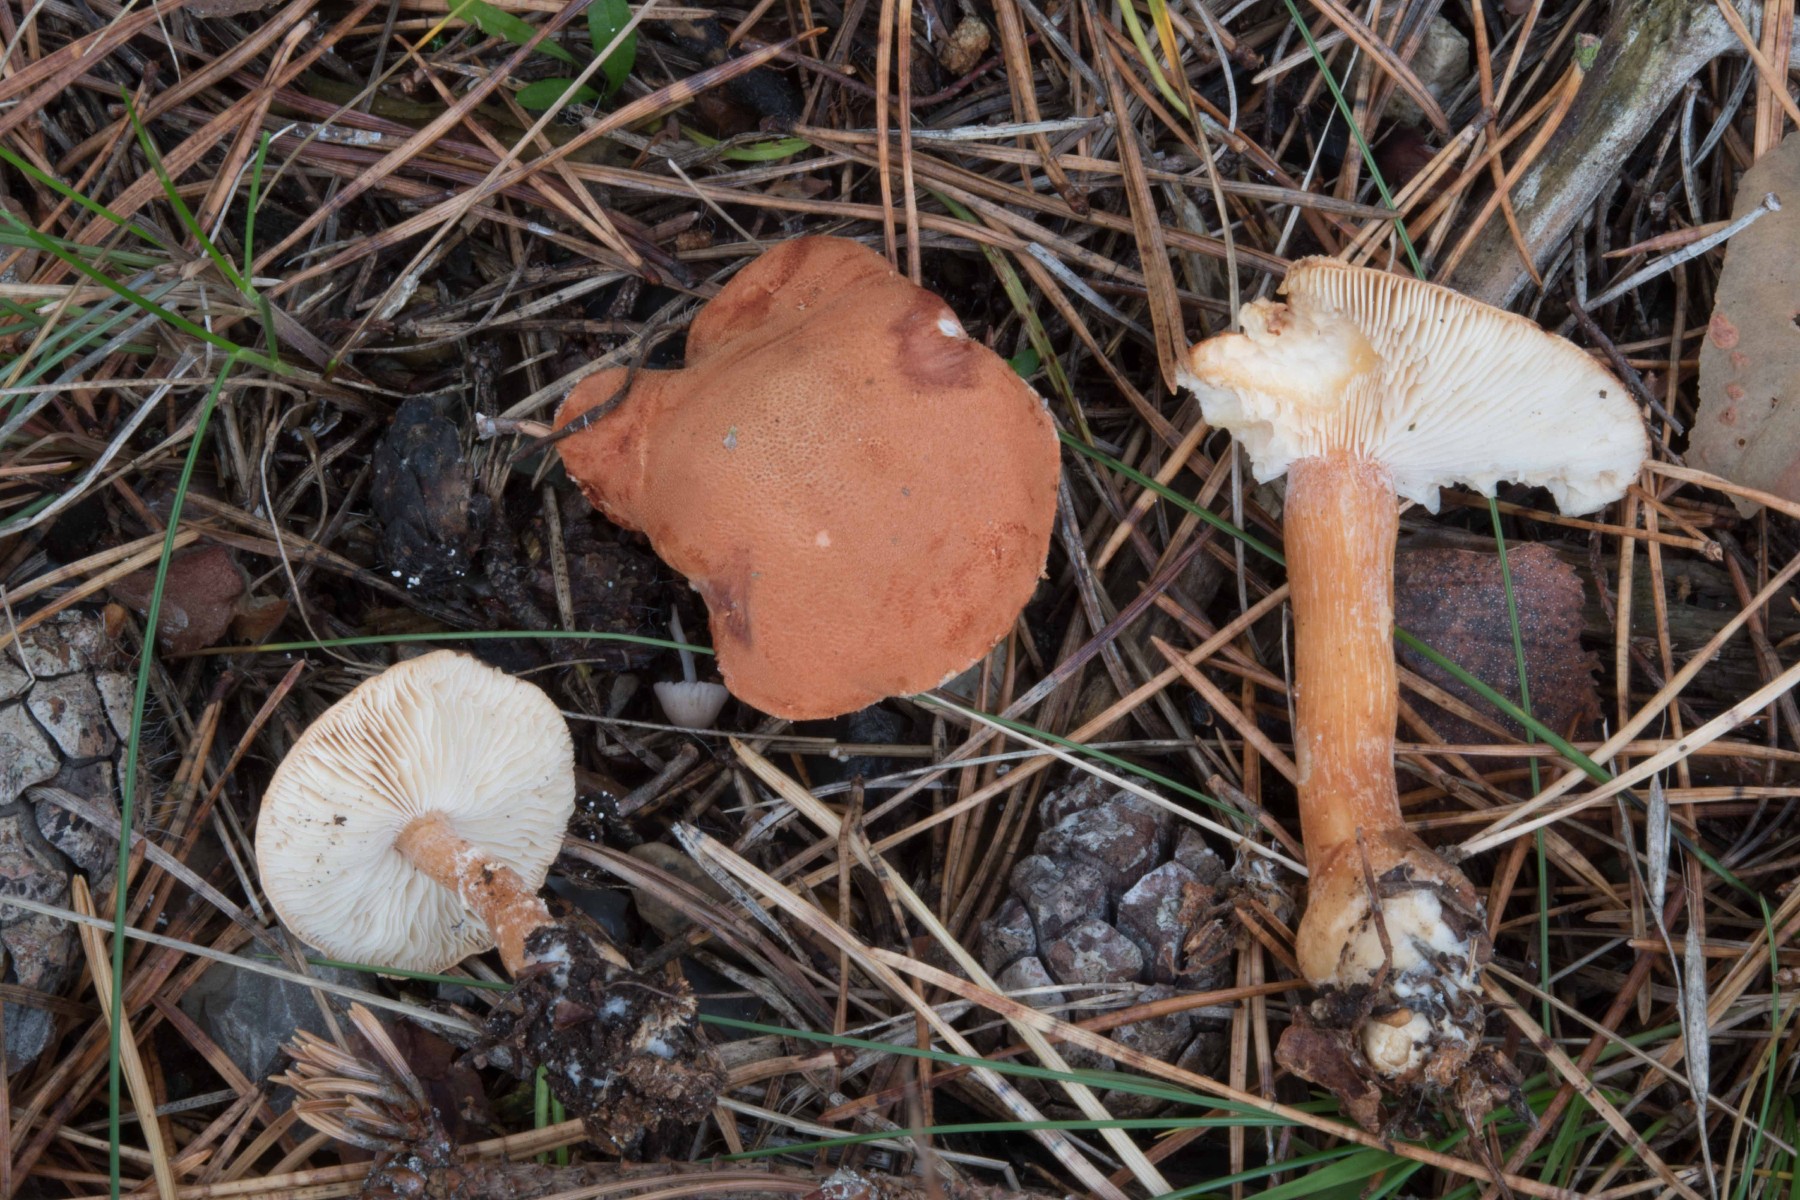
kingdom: Fungi
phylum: Basidiomycota
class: Agaricomycetes
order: Agaricales
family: Agaricaceae
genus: Cystodermella
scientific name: Cystodermella cinnabarina
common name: cinnober-grynhat
